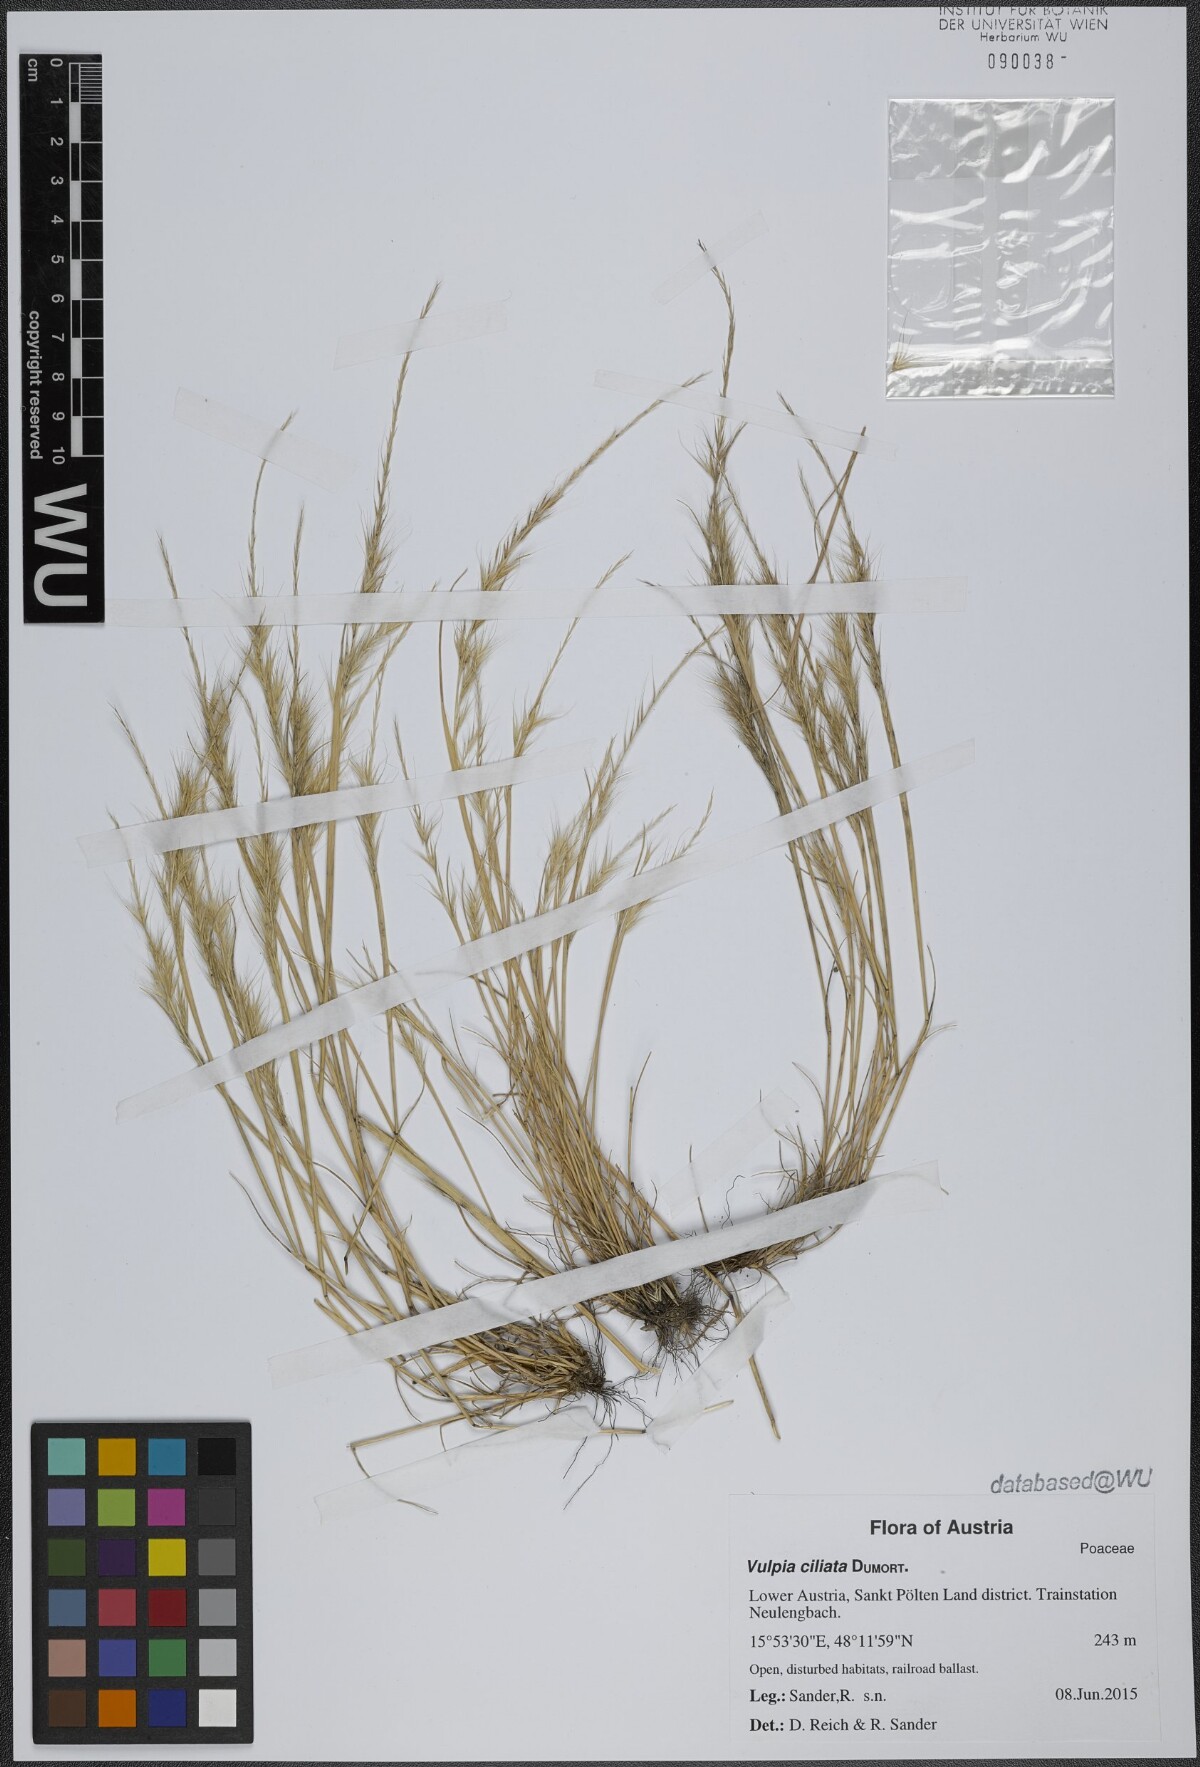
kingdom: Plantae
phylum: Tracheophyta
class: Liliopsida
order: Poales
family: Poaceae
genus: Festuca
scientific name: Festuca ambigua
